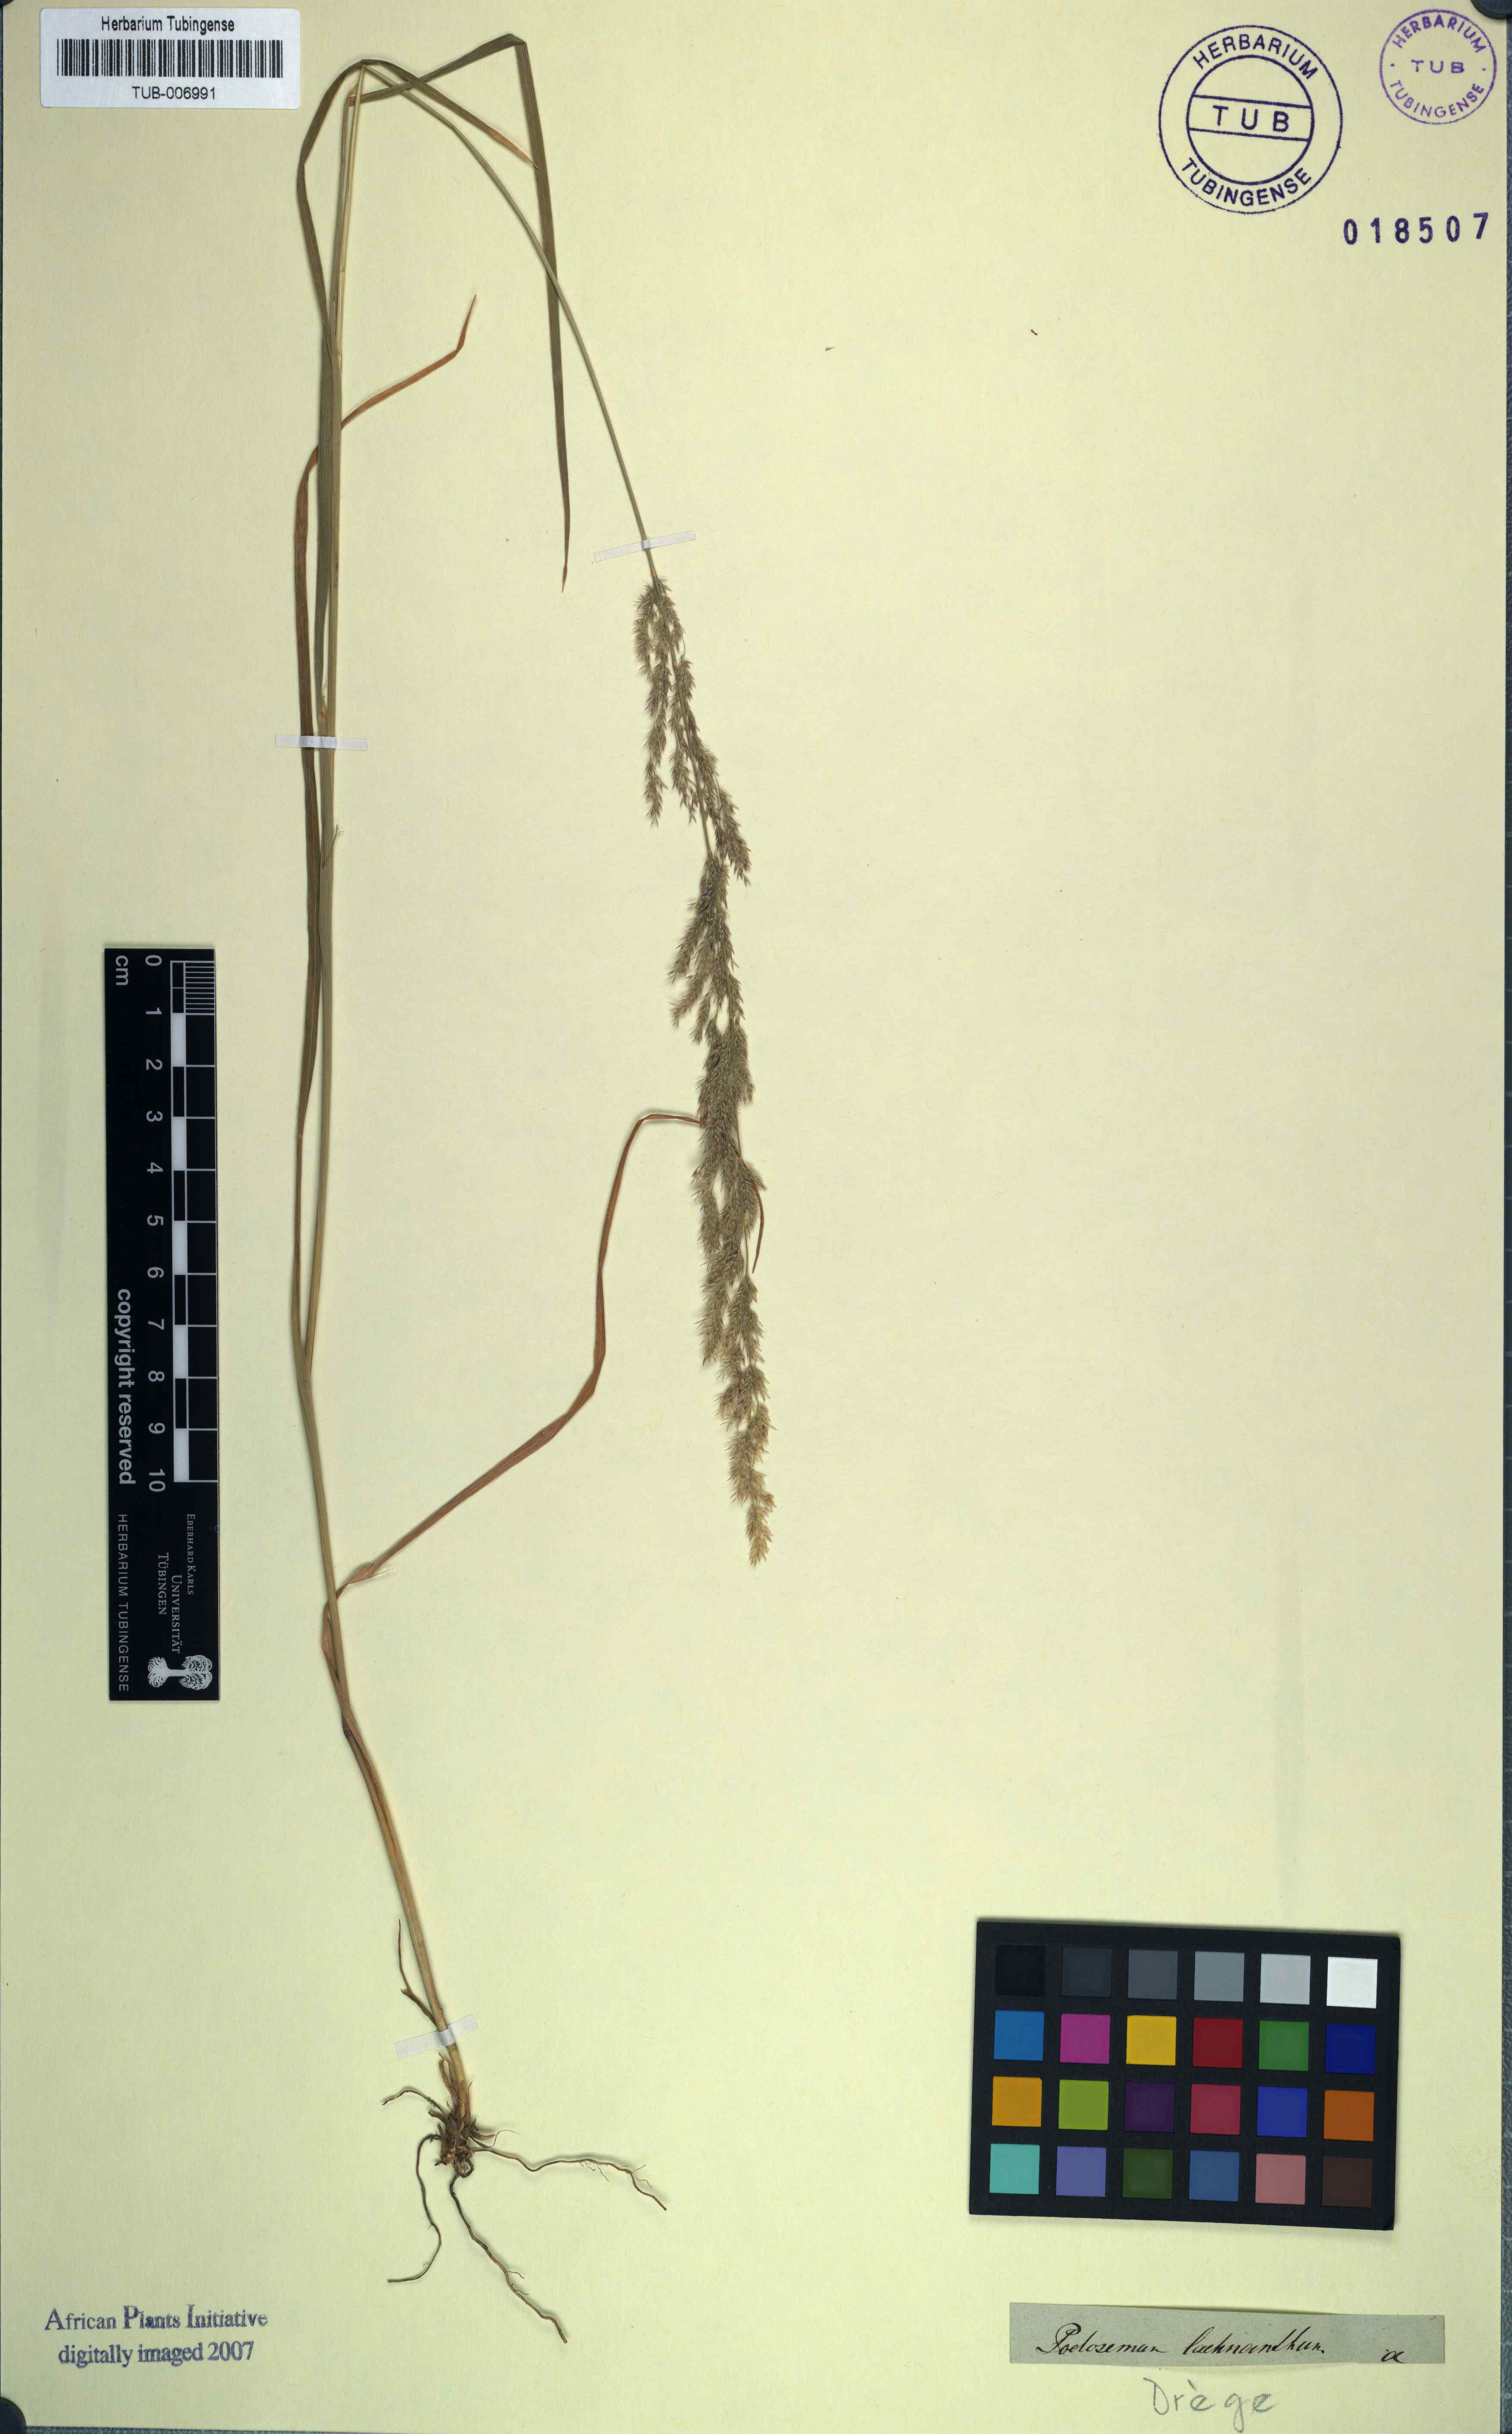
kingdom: Plantae
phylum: Tracheophyta
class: Liliopsida
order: Poales
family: Poaceae
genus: Lachnagrostis
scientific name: Lachnagrostis lachnantha
